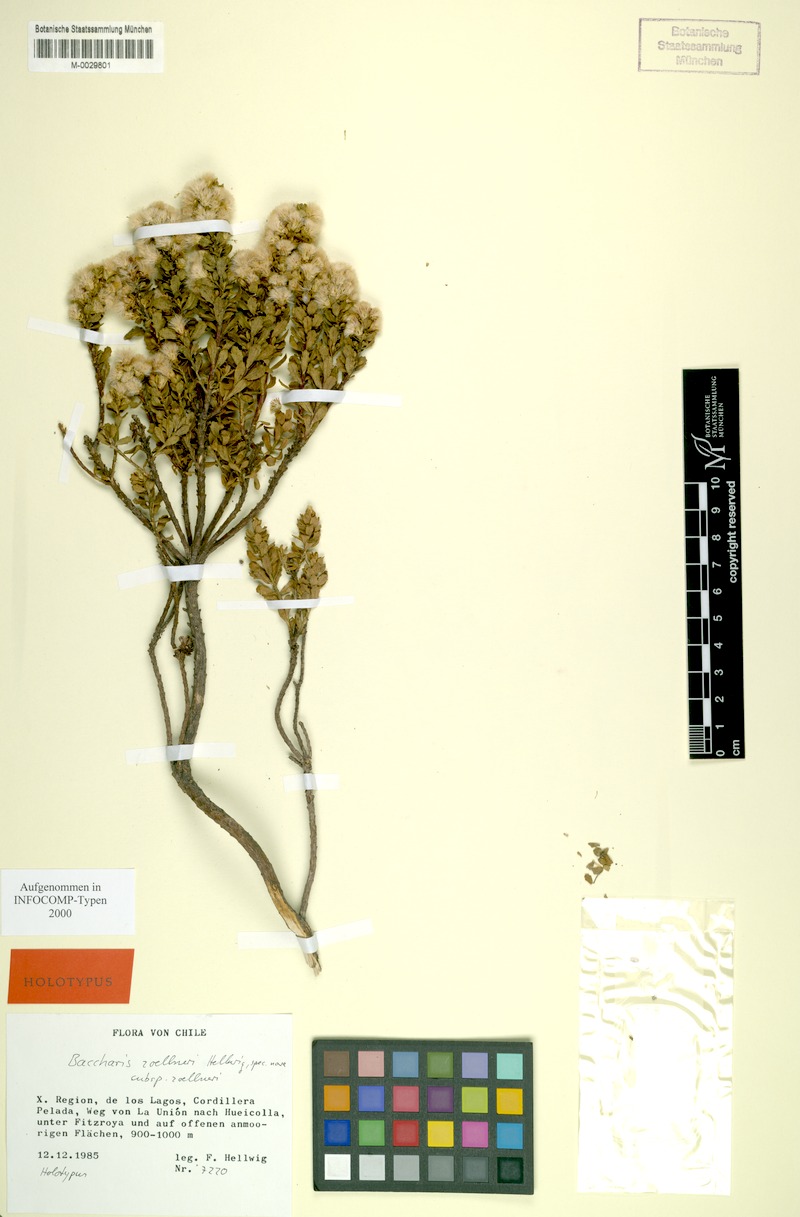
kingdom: Plantae
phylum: Tracheophyta
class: Magnoliopsida
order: Asterales
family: Asteraceae
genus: Baccharis
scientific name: Baccharis zoellneri
